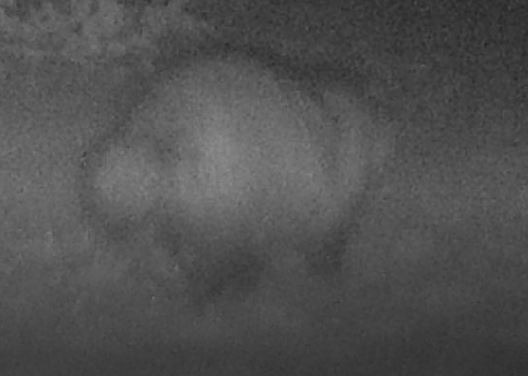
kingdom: Animalia
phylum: Chordata
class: Mammalia
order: Carnivora
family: Canidae
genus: Nyctereutes
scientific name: Nyctereutes procyonoides
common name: Mårhund
